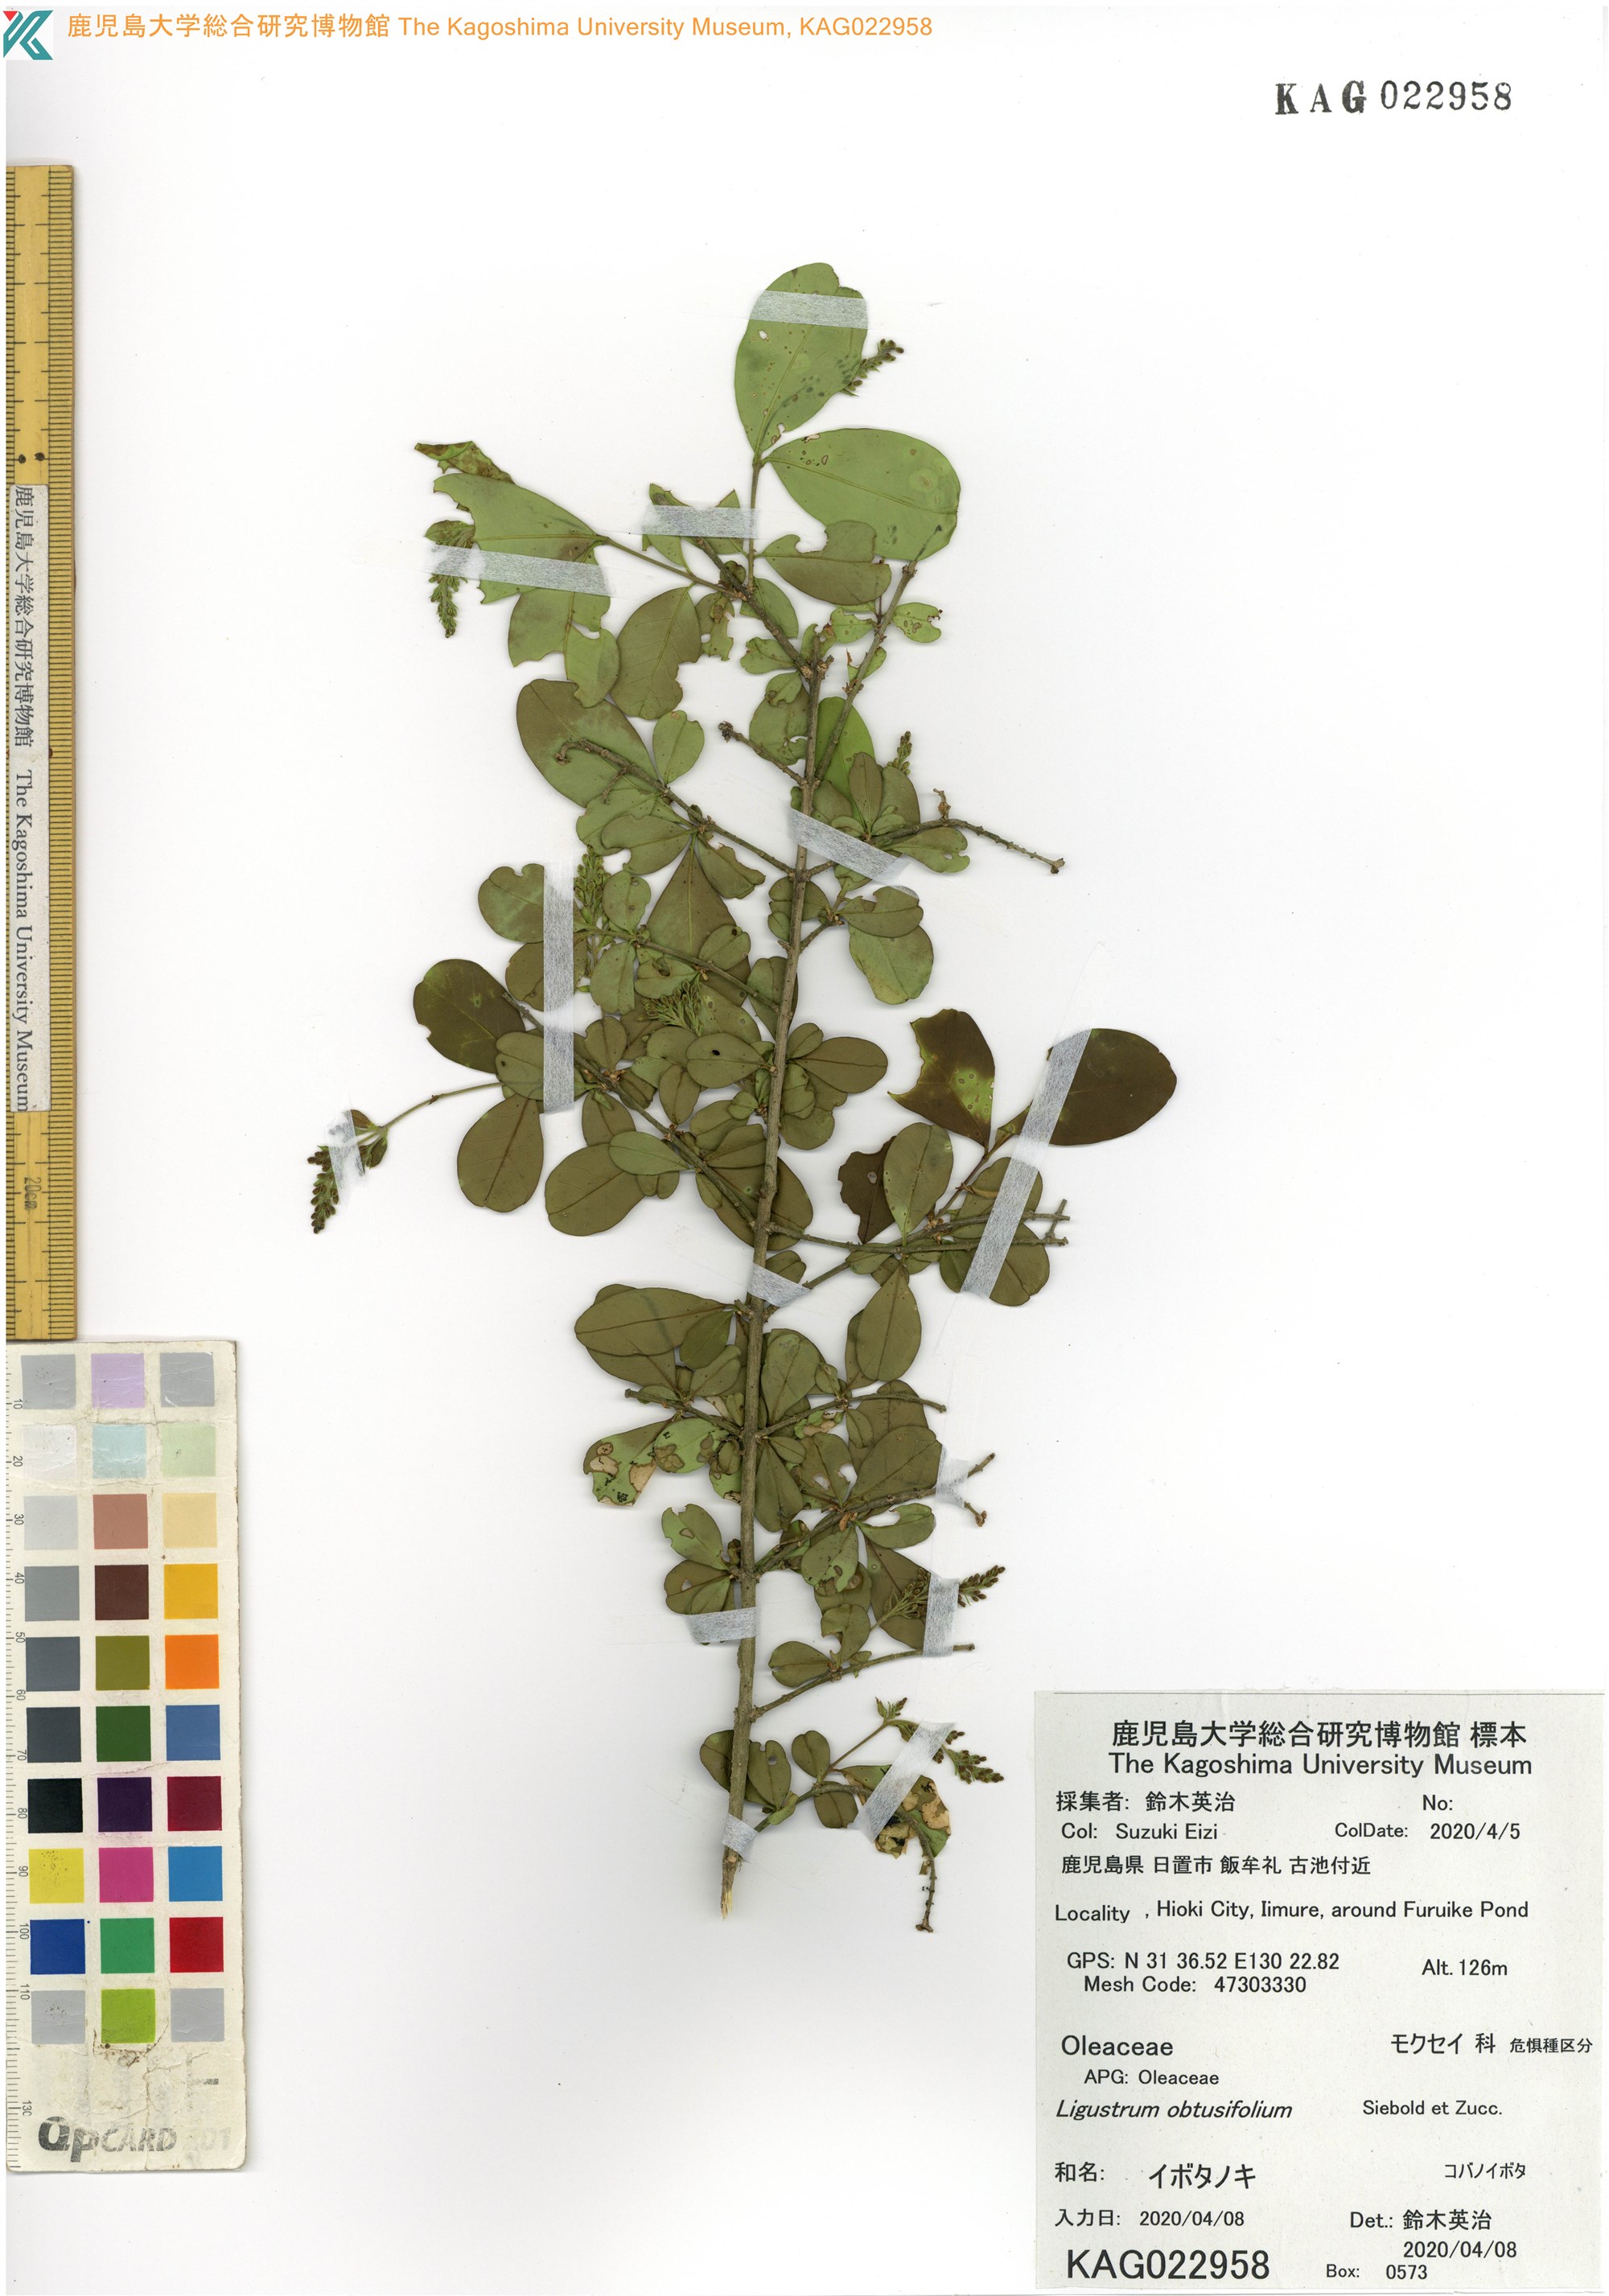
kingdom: Plantae
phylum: Tracheophyta
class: Magnoliopsida
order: Lamiales
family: Oleaceae
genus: Ligustrum
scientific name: Ligustrum obtusifolium
